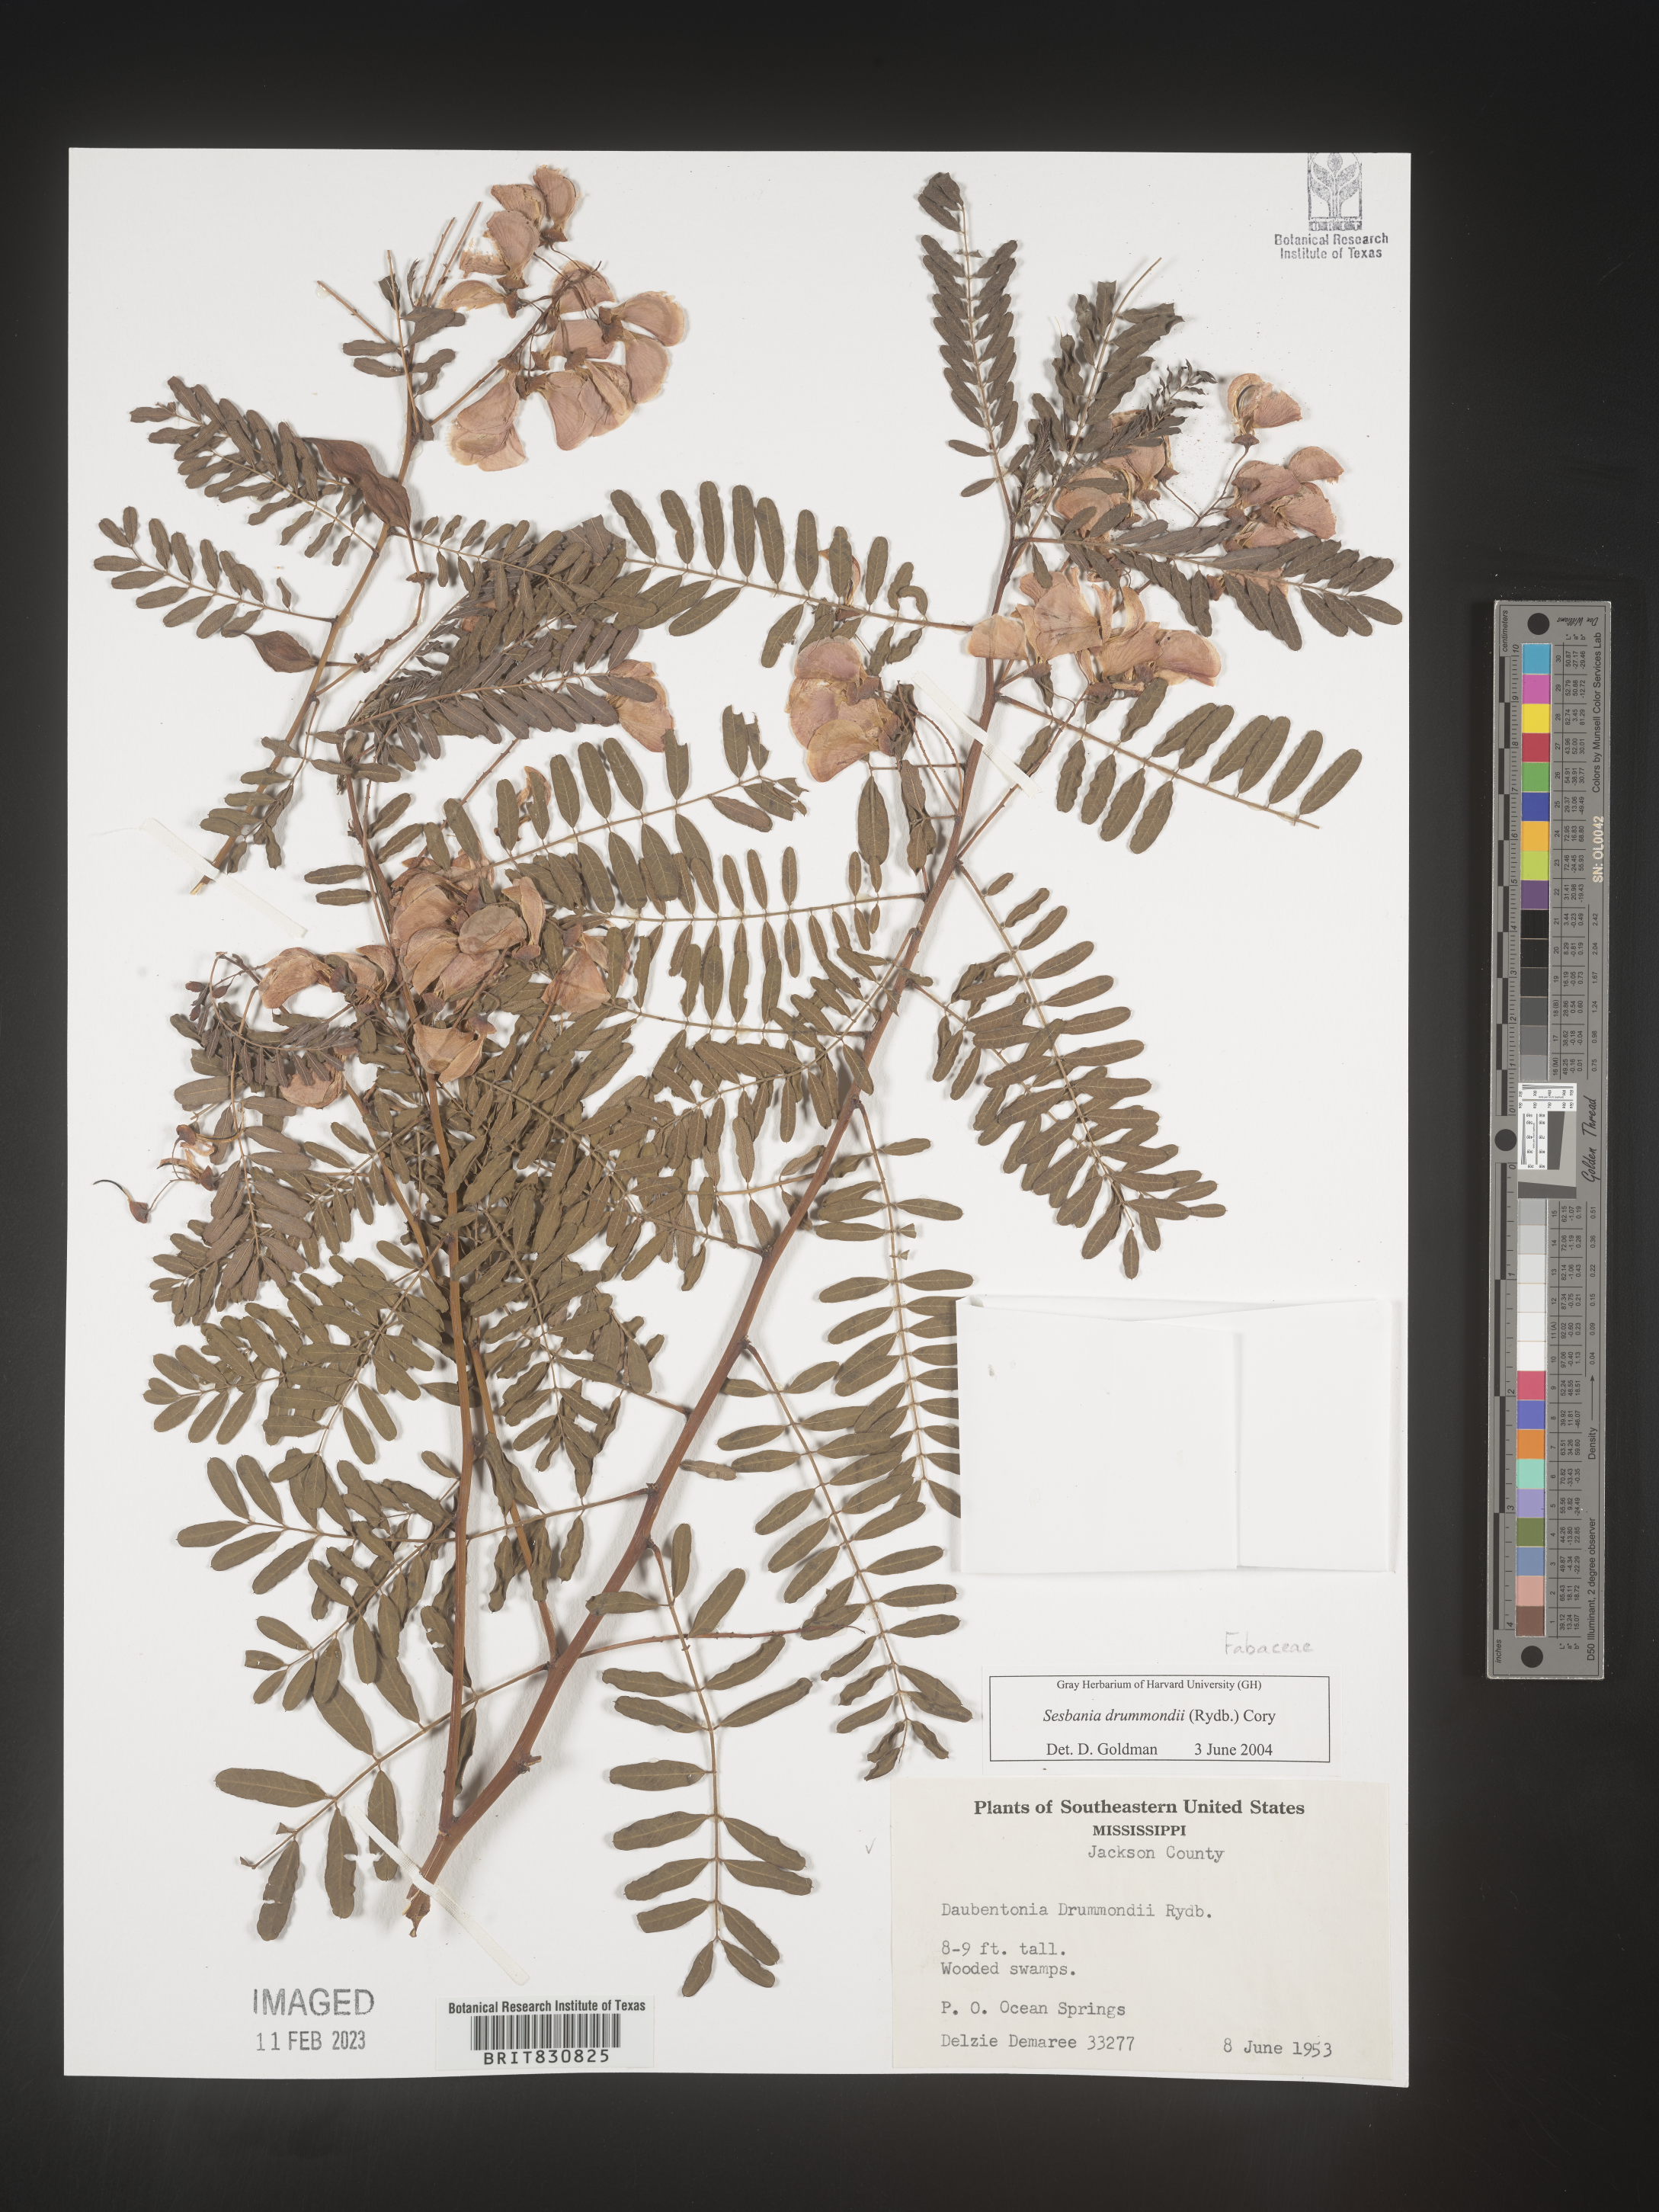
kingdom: Plantae
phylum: Tracheophyta
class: Magnoliopsida
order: Fabales
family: Fabaceae
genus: Sesbania
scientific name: Sesbania drummondii
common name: Poison-bean
